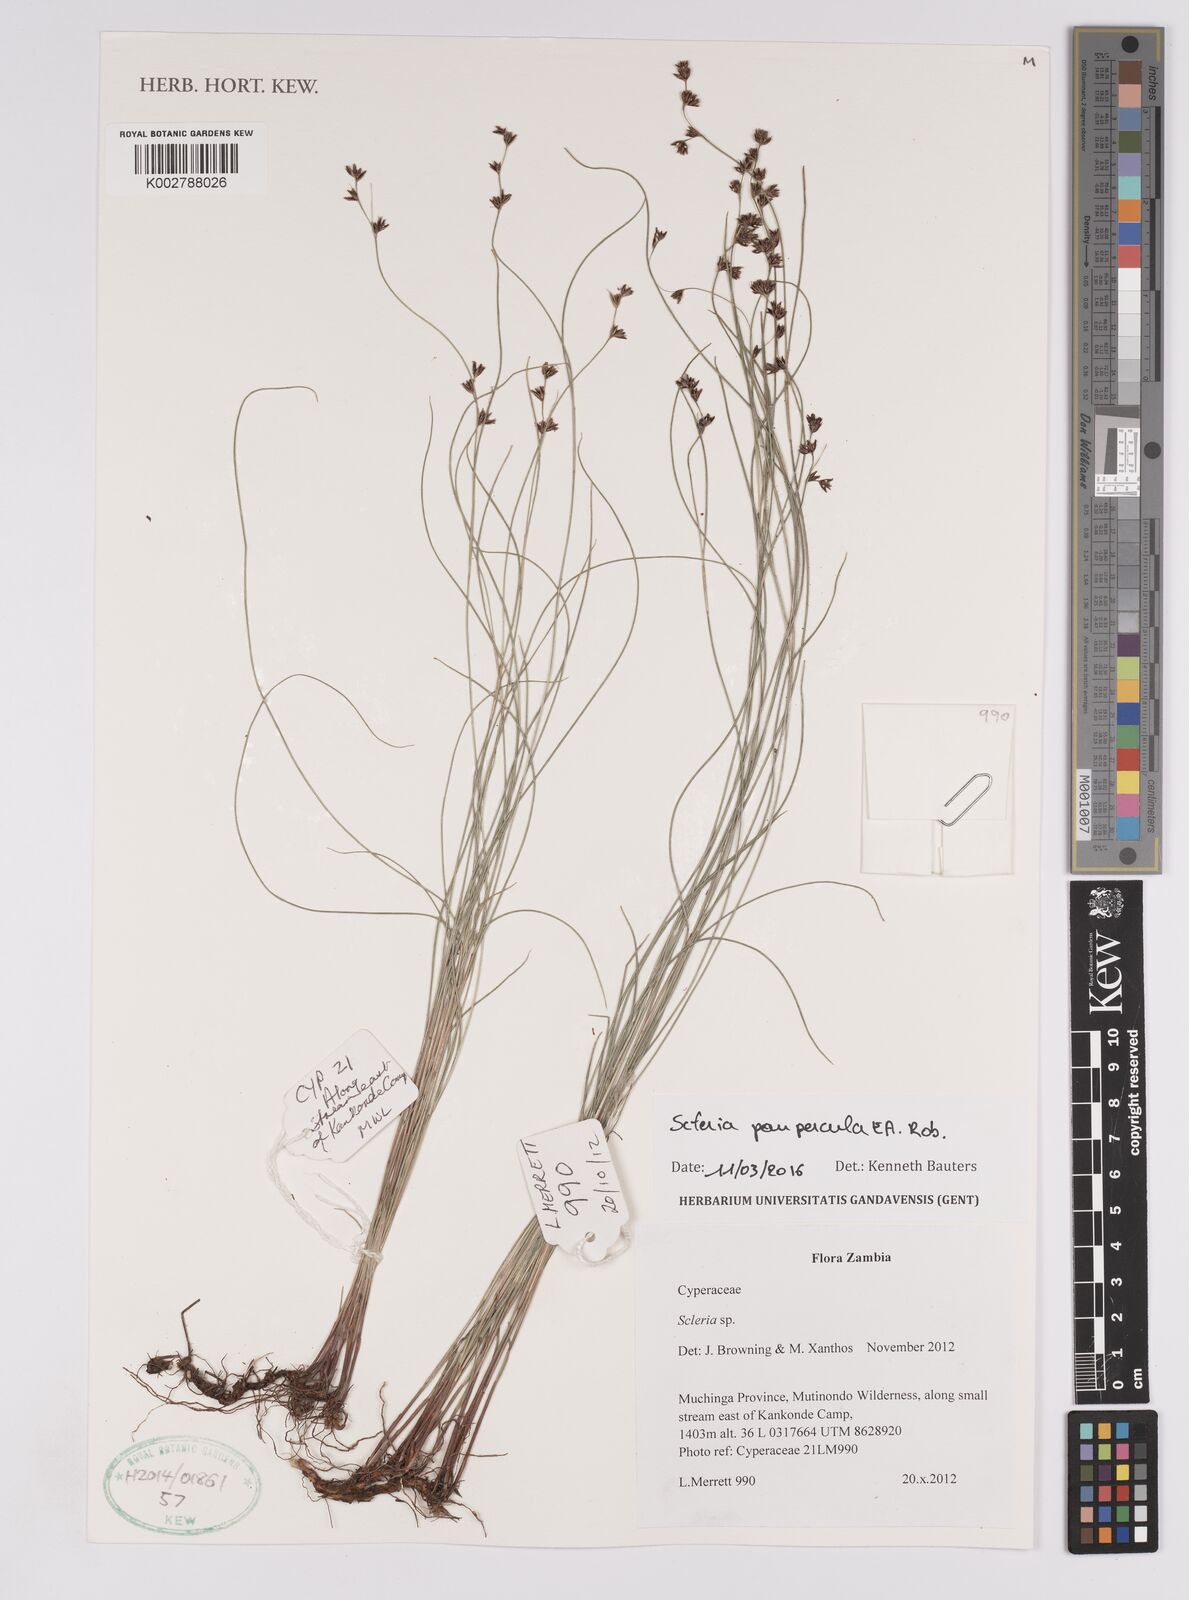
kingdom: Plantae
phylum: Tracheophyta
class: Liliopsida
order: Poales
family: Cyperaceae
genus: Scleria
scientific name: Scleria paupercula
